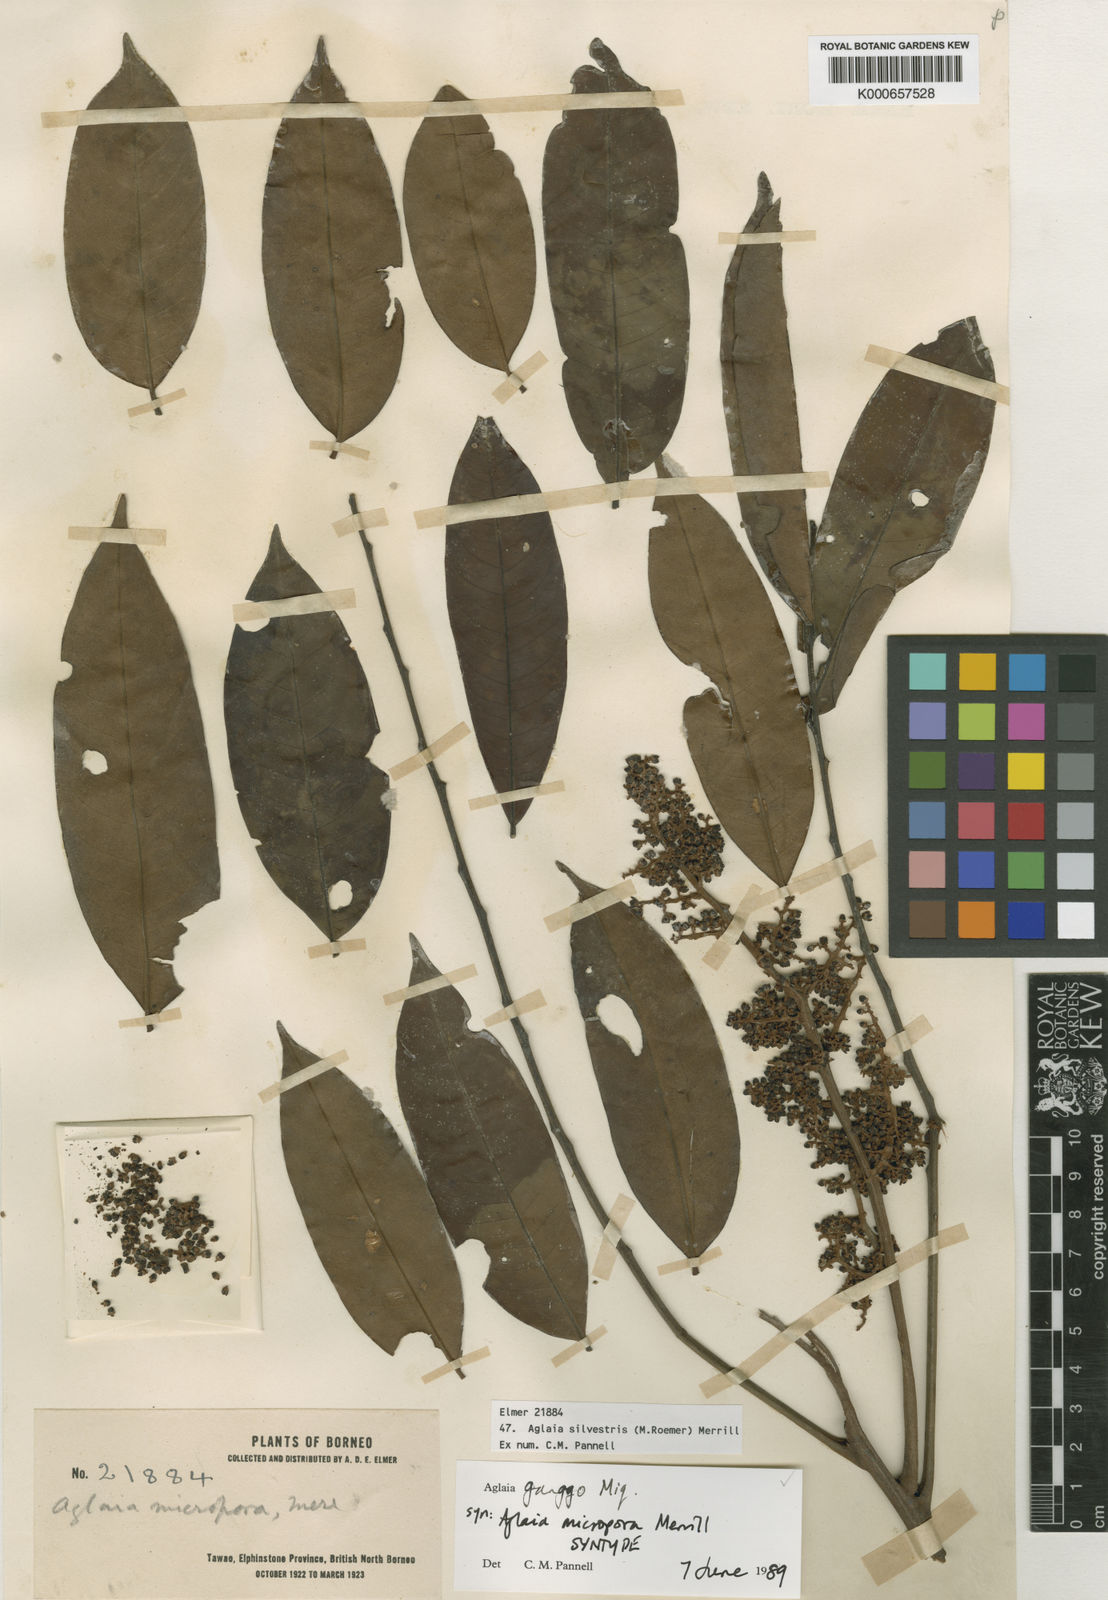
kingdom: Plantae
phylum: Tracheophyta
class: Magnoliopsida
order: Sapindales
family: Meliaceae
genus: Aglaia
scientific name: Aglaia silvestris
